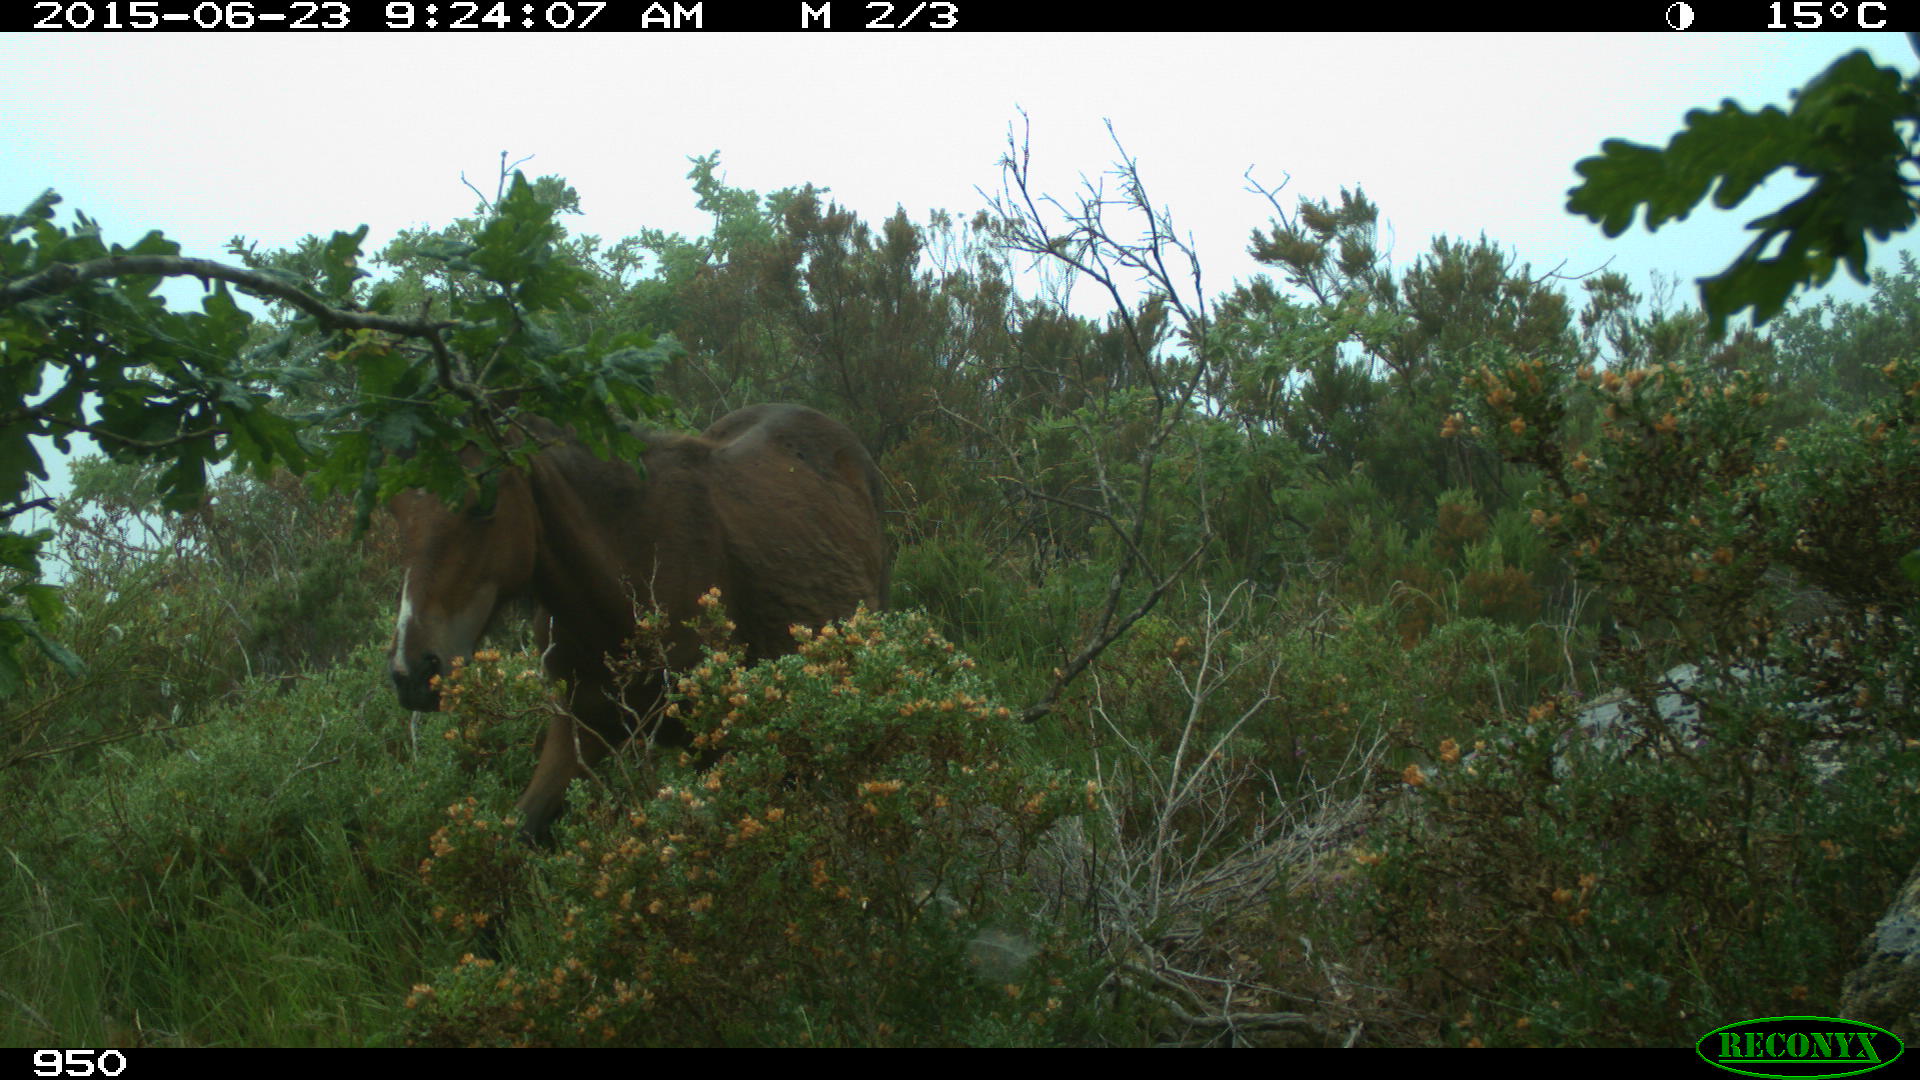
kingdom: Animalia
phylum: Chordata
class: Mammalia
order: Perissodactyla
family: Equidae
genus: Equus
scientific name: Equus caballus
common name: Horse
